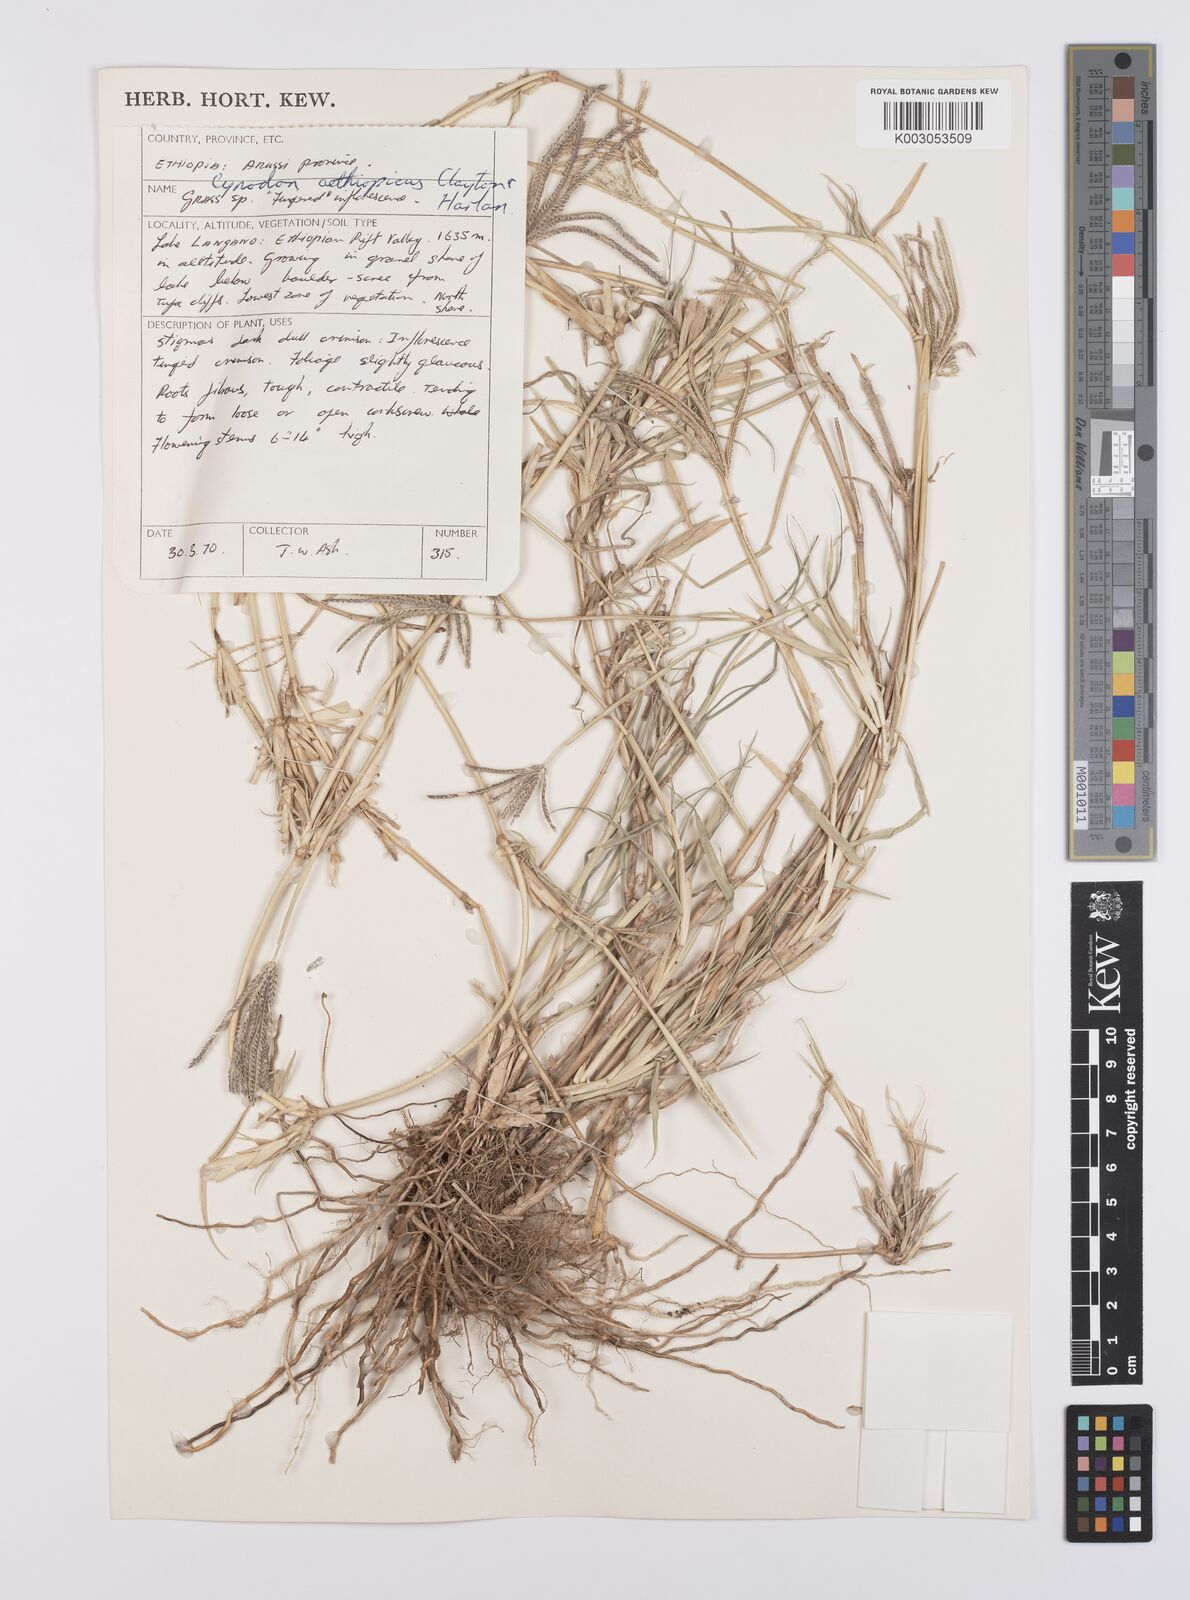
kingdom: Plantae
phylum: Tracheophyta
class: Liliopsida
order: Poales
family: Poaceae
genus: Cynodon
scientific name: Cynodon aethiopicus
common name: Ethiopian dogstooth grass
